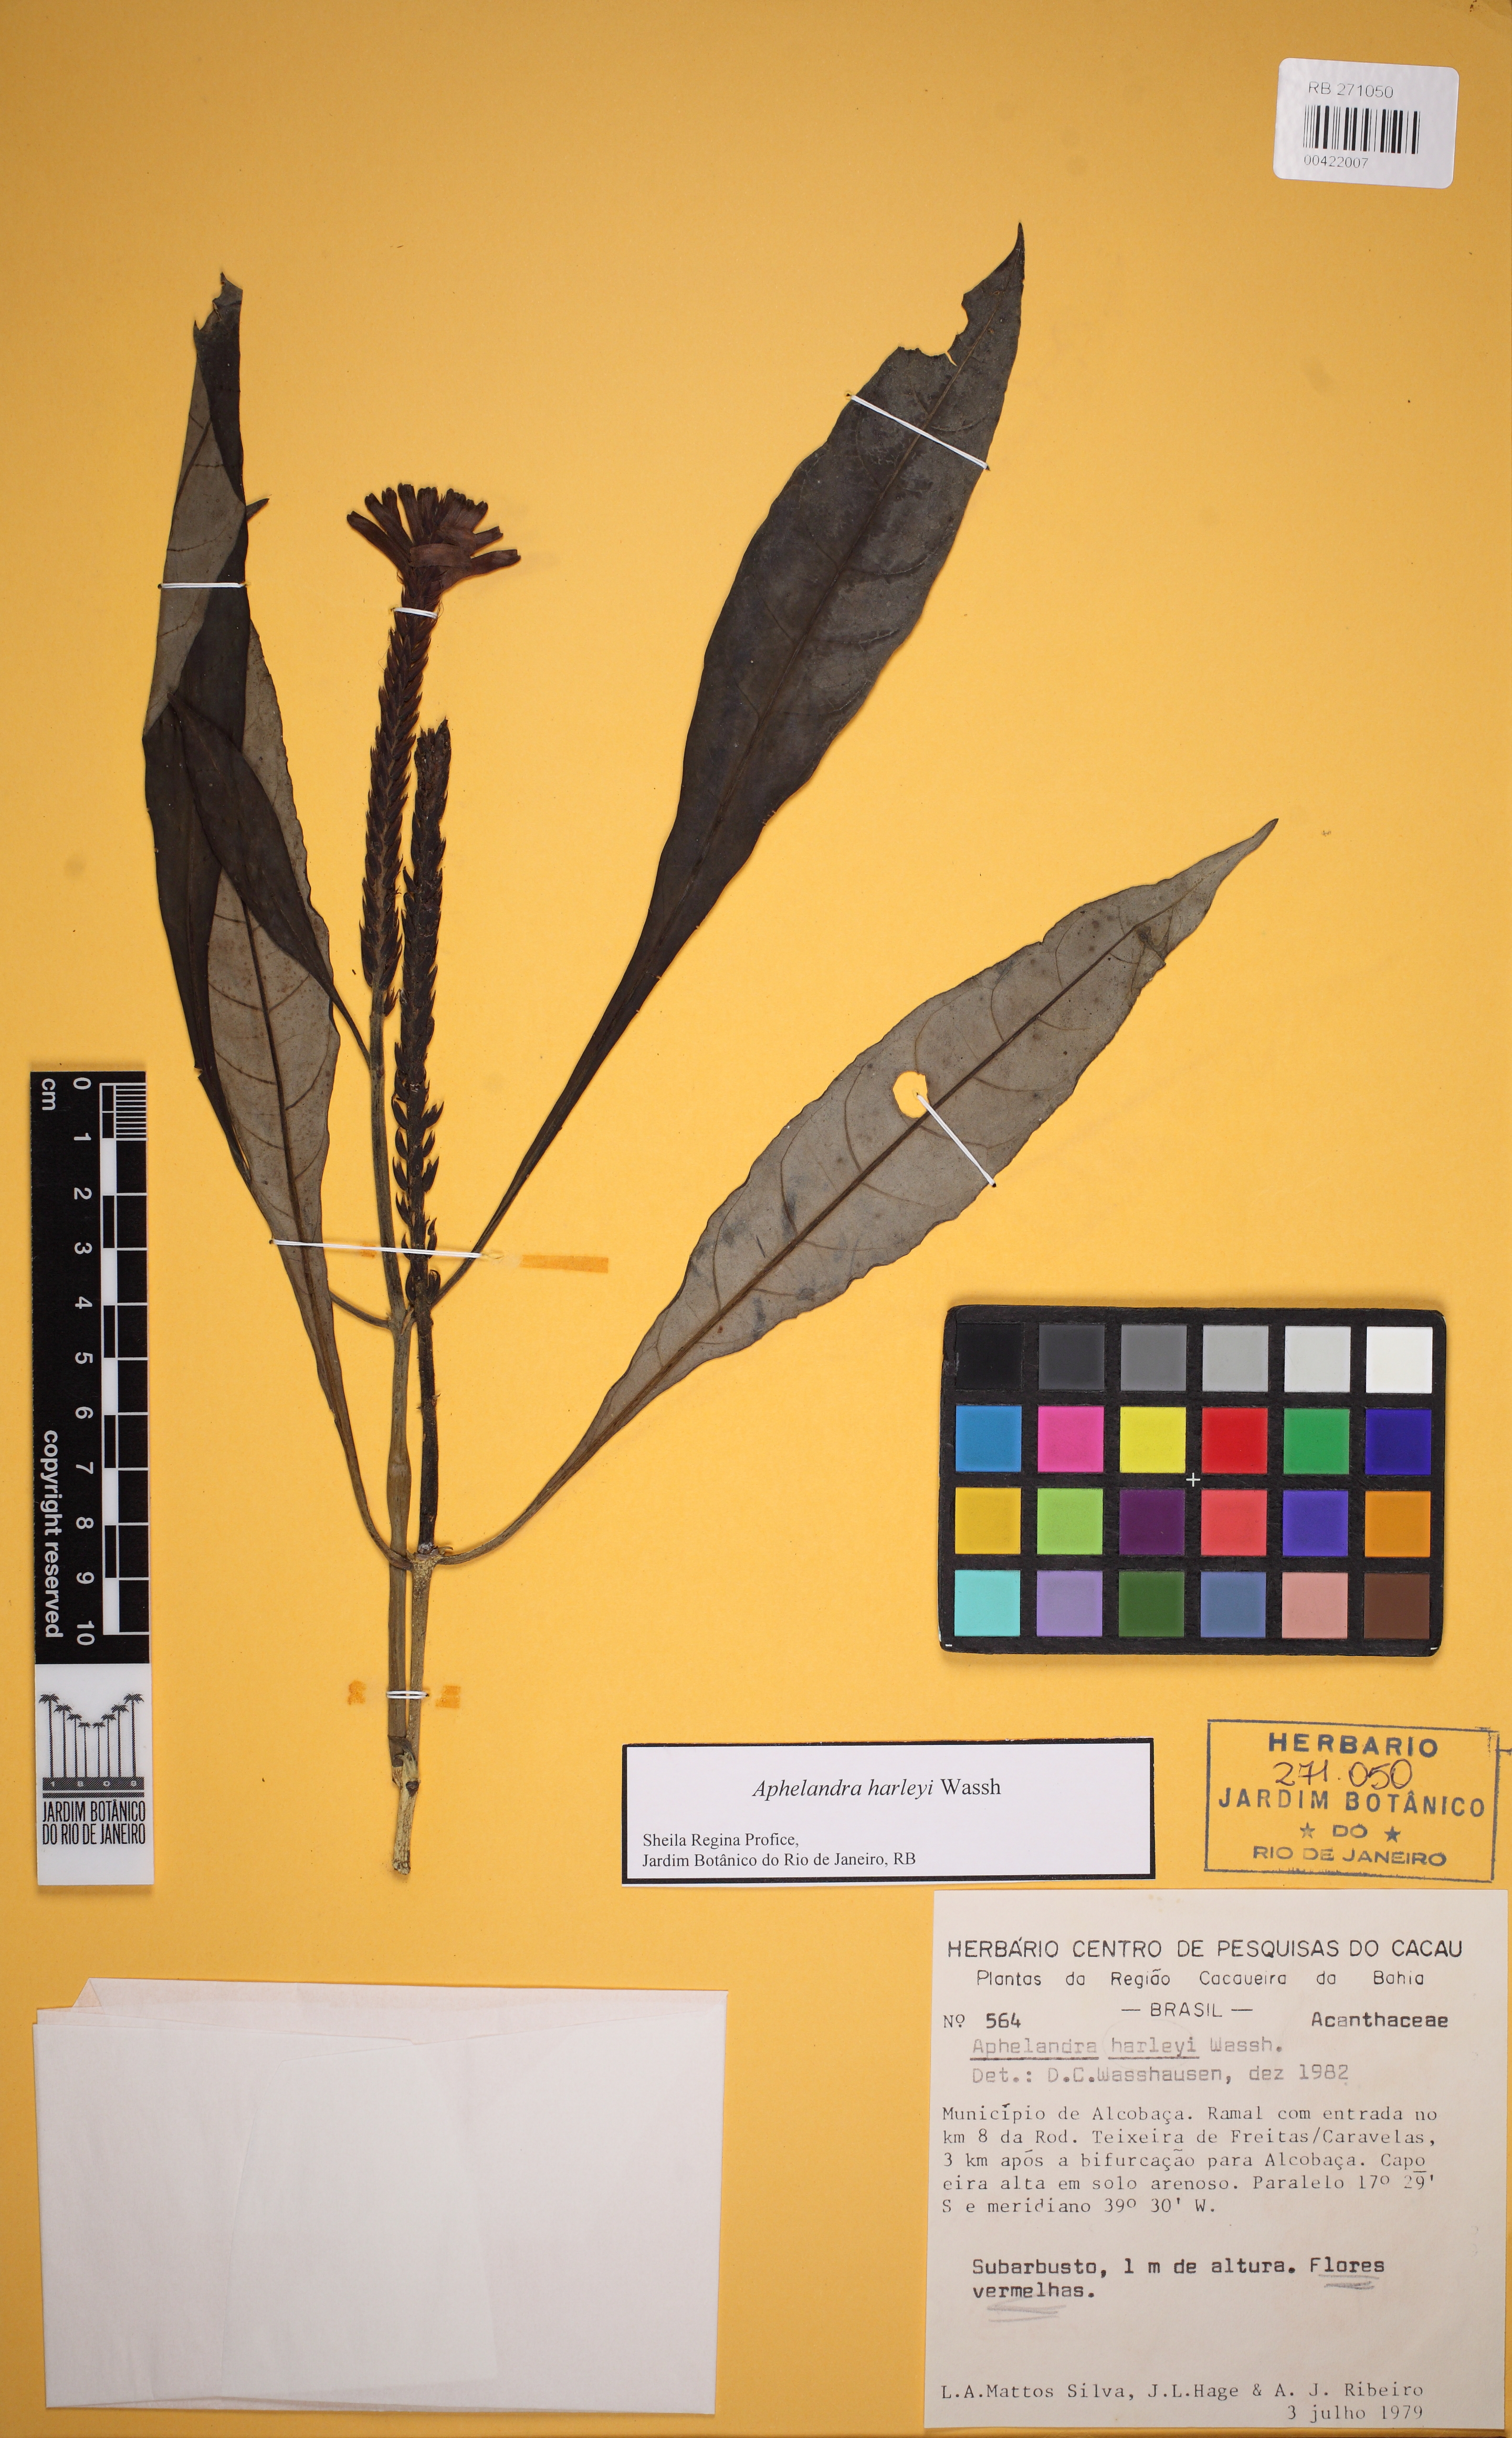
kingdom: Plantae
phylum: Tracheophyta
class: Magnoliopsida
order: Lamiales
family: Acanthaceae
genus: Aphelandra
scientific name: Aphelandra harleyi
